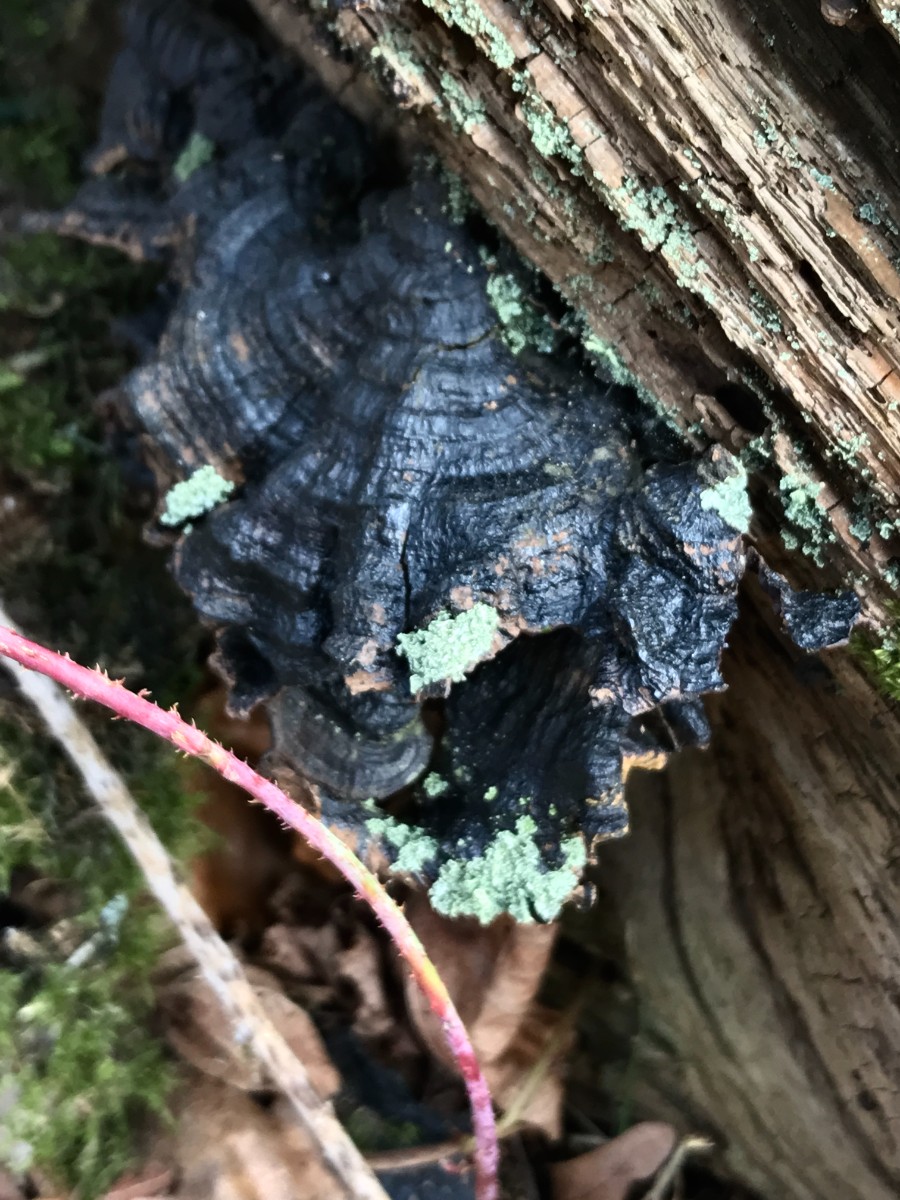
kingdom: Fungi
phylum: Basidiomycota
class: Agaricomycetes
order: Hymenochaetales
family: Hymenochaetaceae
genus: Hymenochaete
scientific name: Hymenochaete rubiginosa
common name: stiv ruslædersvamp
